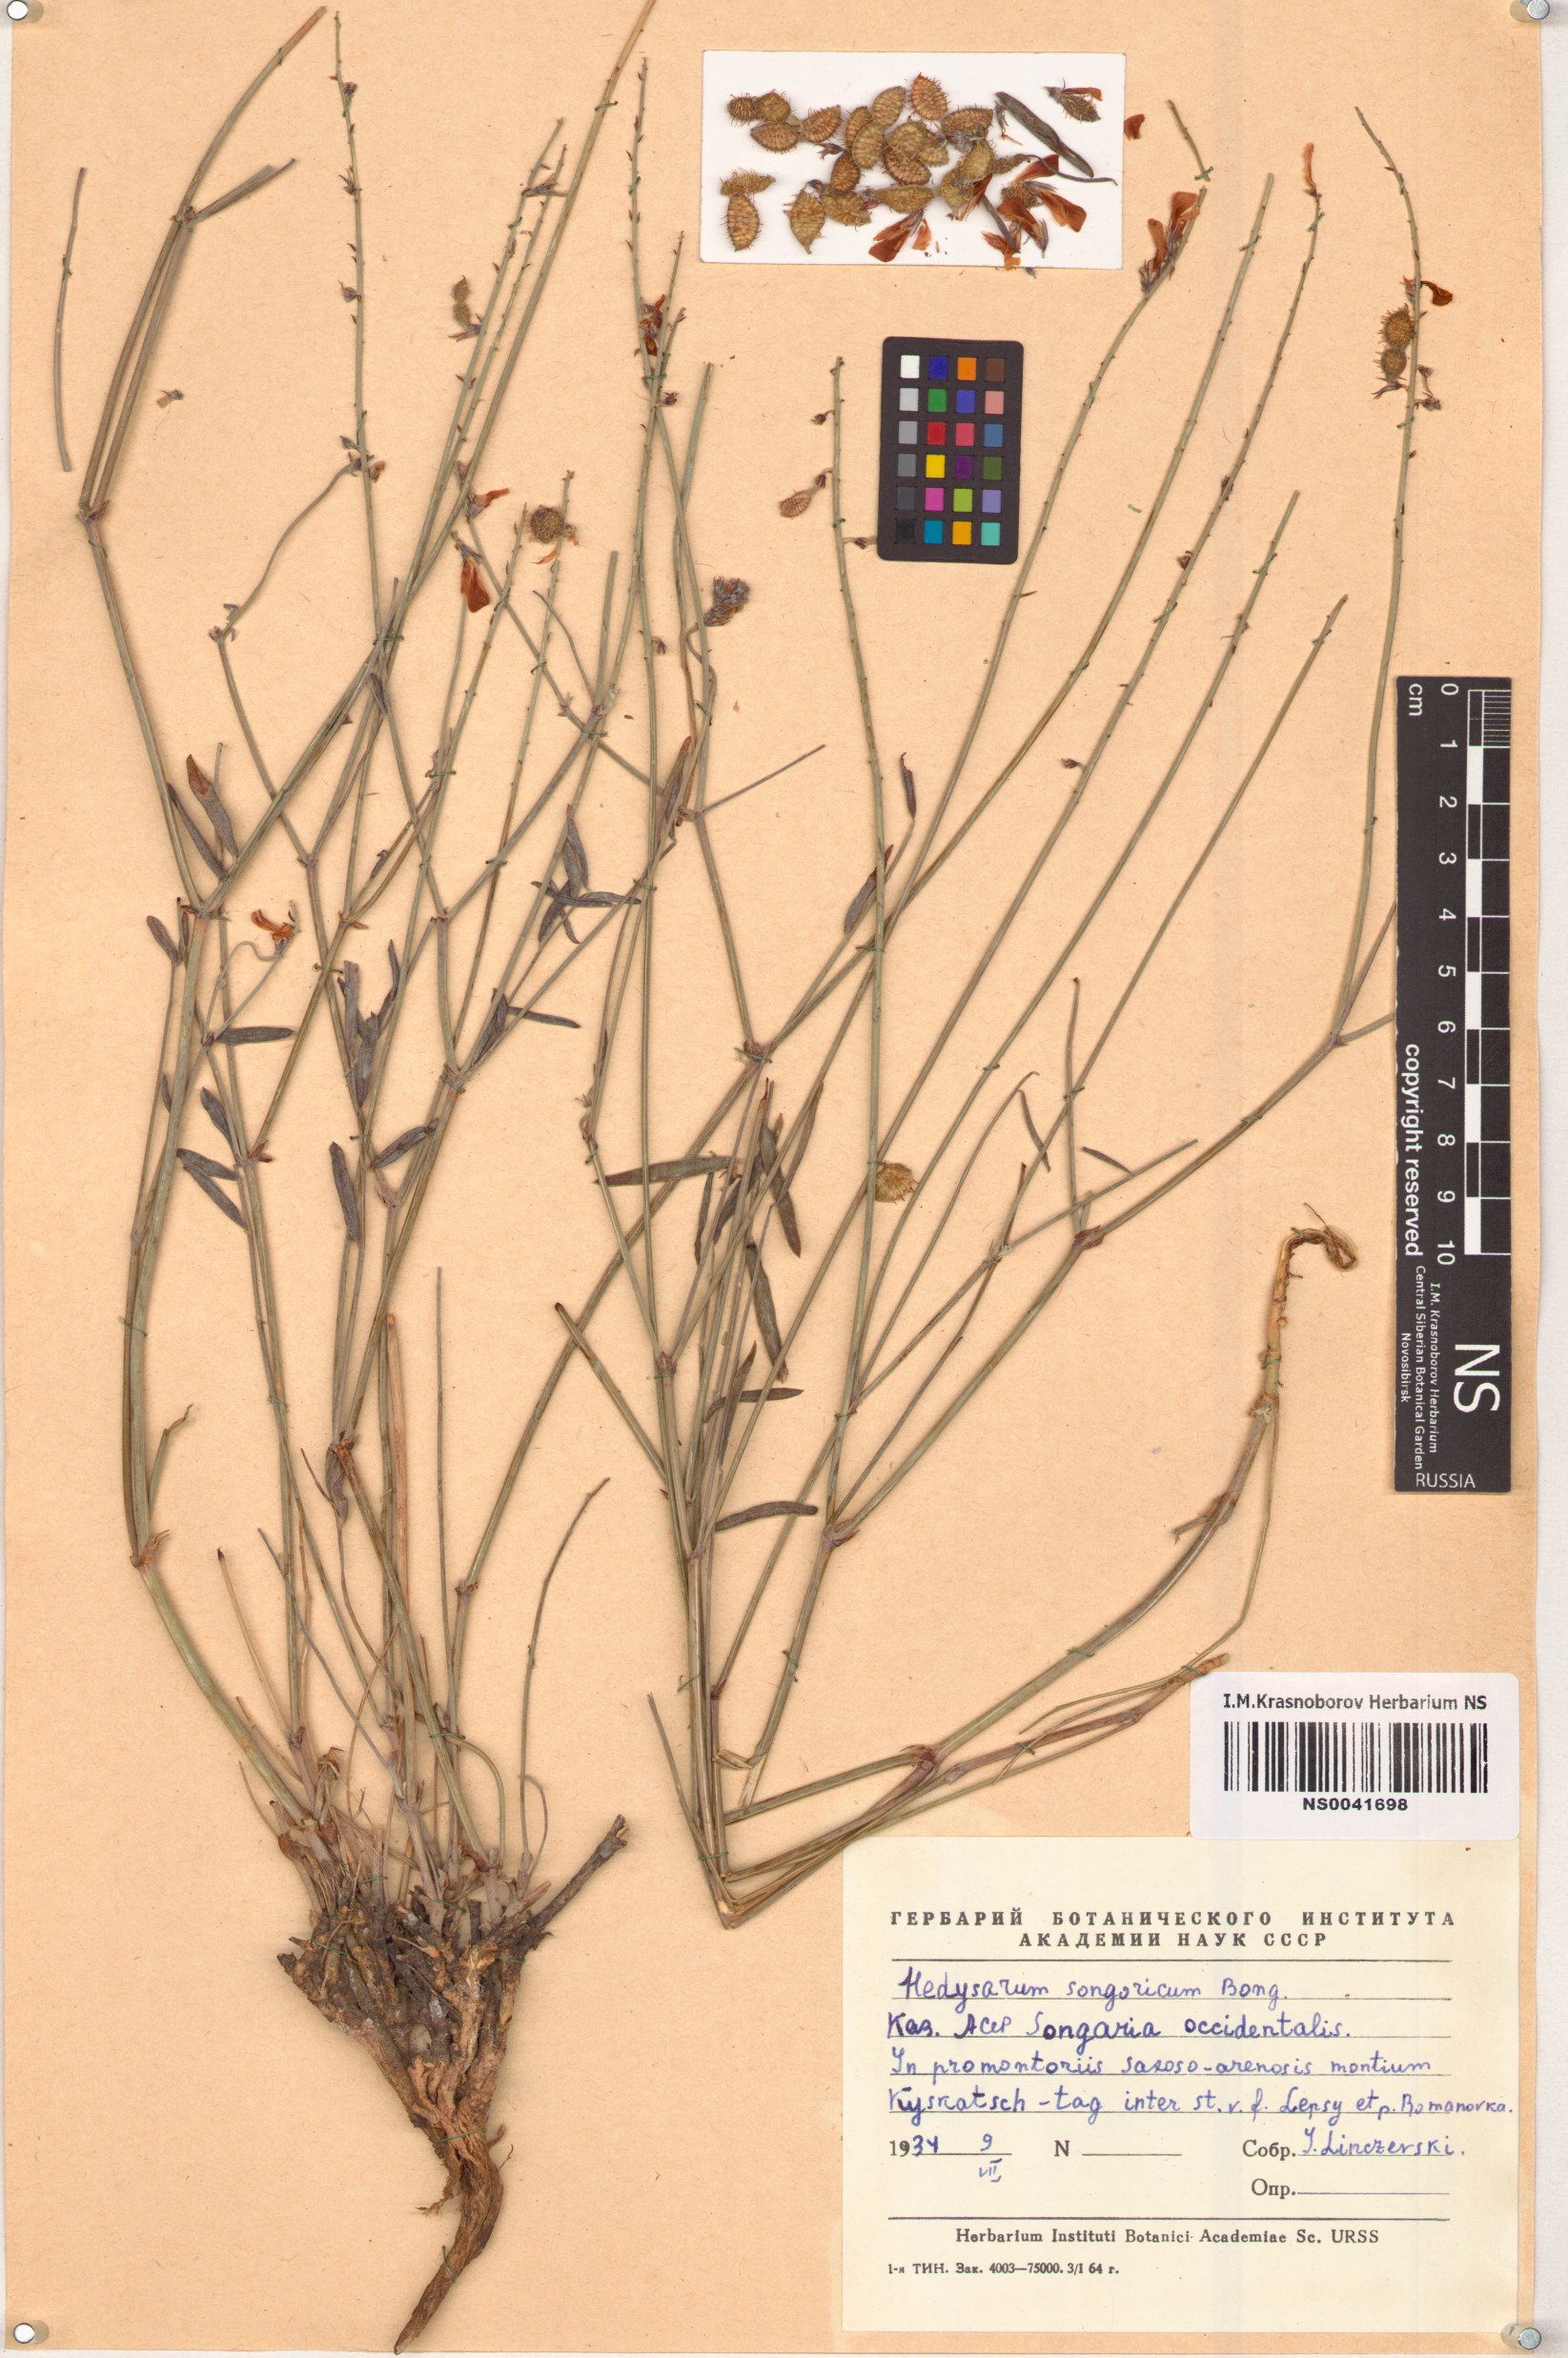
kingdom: Plantae
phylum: Tracheophyta
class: Magnoliopsida
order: Fabales
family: Fabaceae
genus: Hedysarum
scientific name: Hedysarum songaricum
